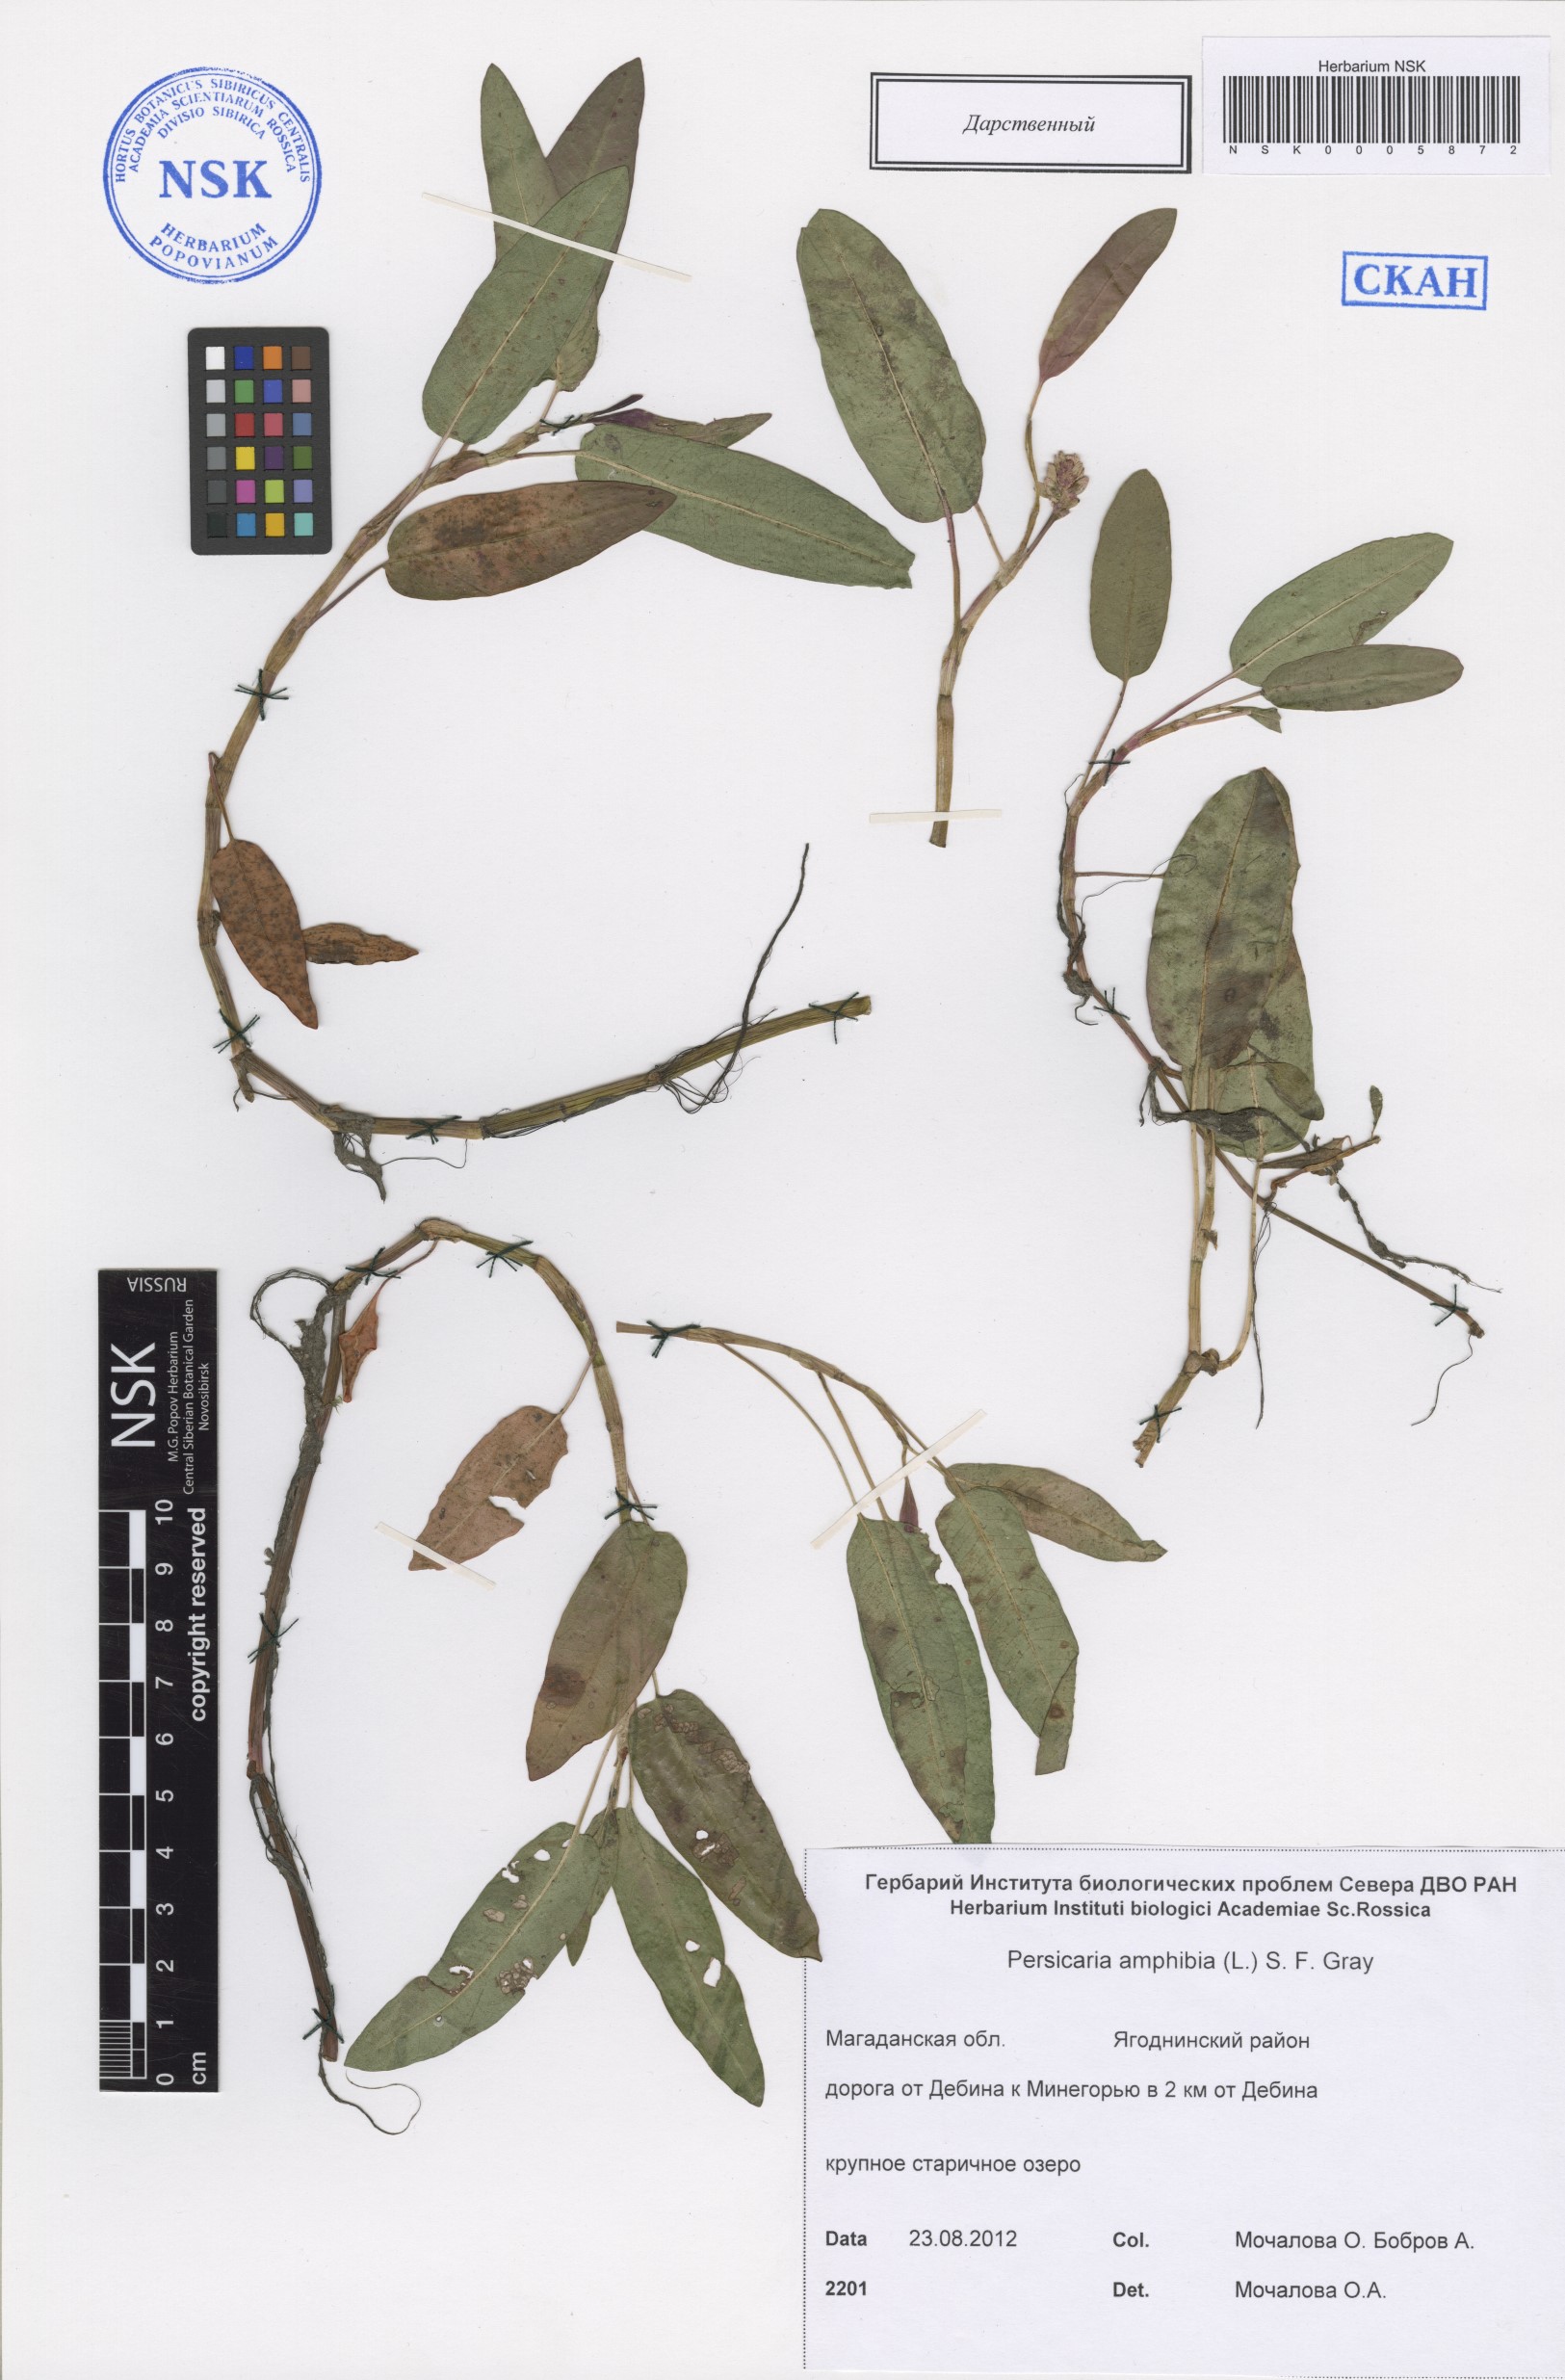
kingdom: Plantae
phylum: Tracheophyta
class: Magnoliopsida
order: Caryophyllales
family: Polygonaceae
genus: Persicaria
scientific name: Persicaria amphibia
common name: Amphibious bistort
